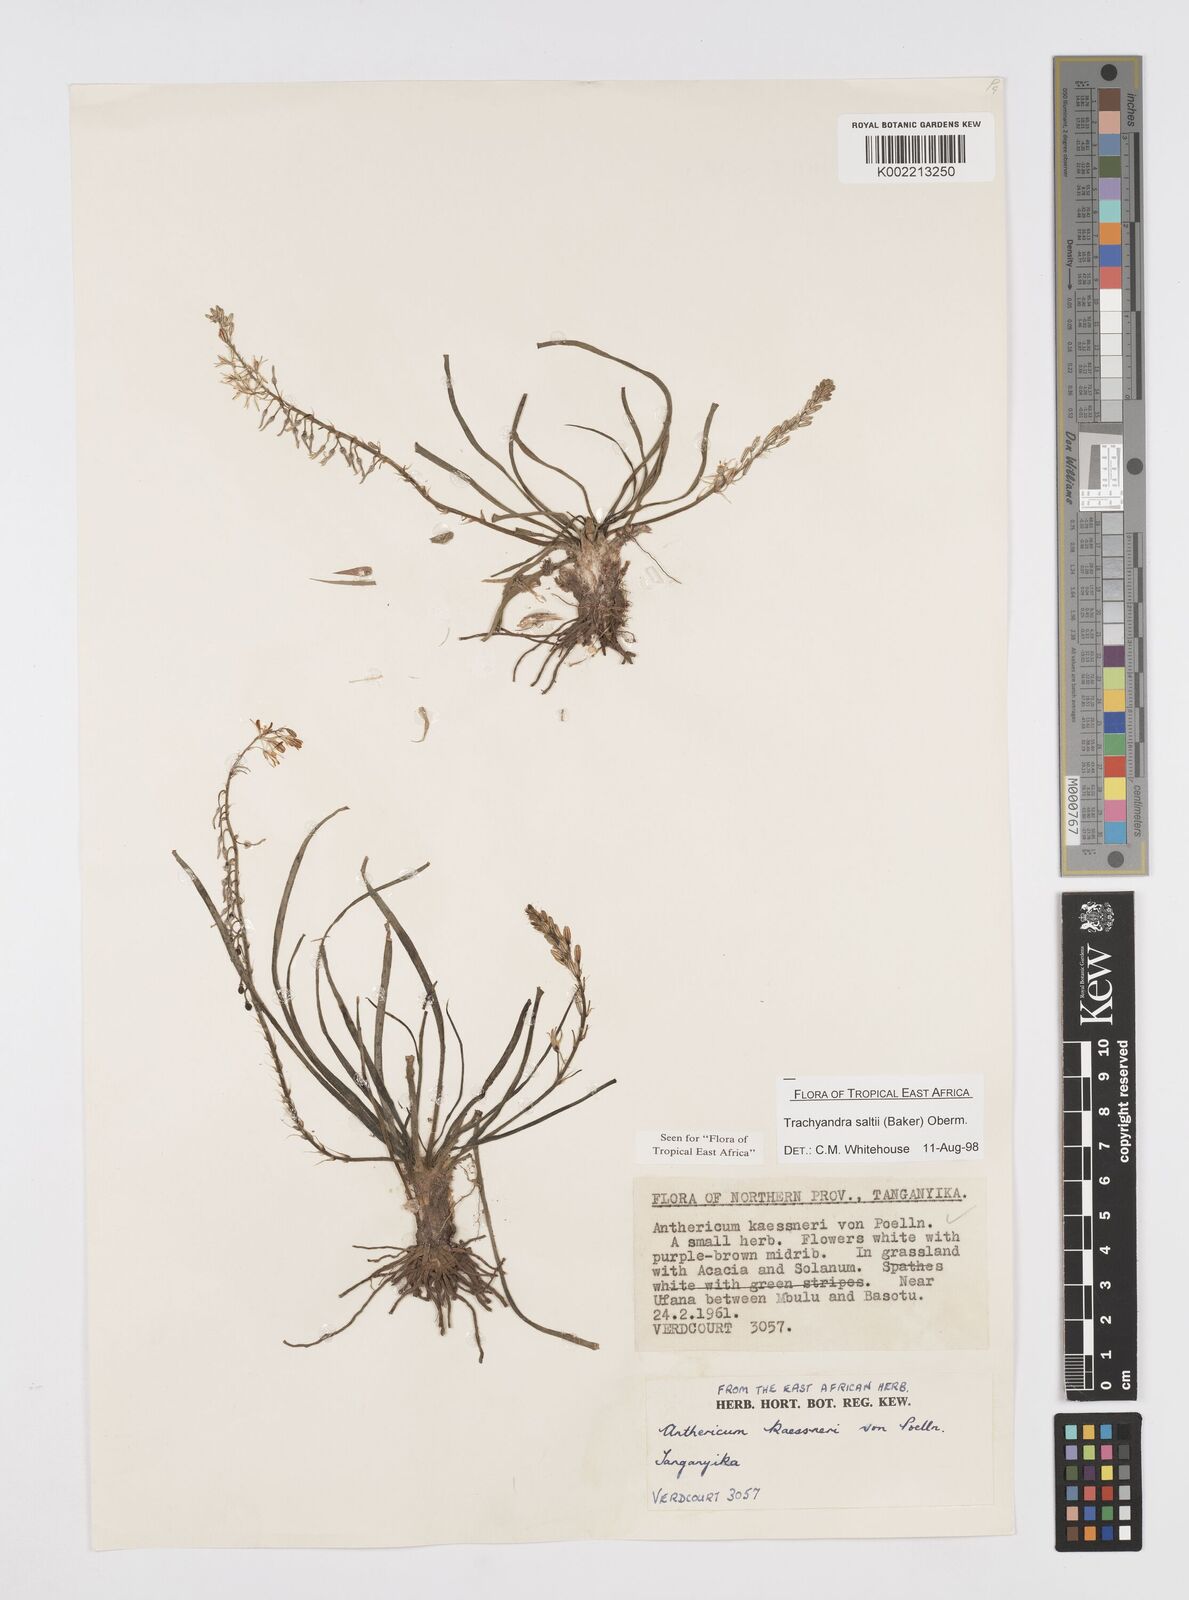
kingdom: Plantae
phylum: Tracheophyta
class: Liliopsida
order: Asparagales
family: Asphodelaceae
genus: Trachyandra
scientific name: Trachyandra saltii
